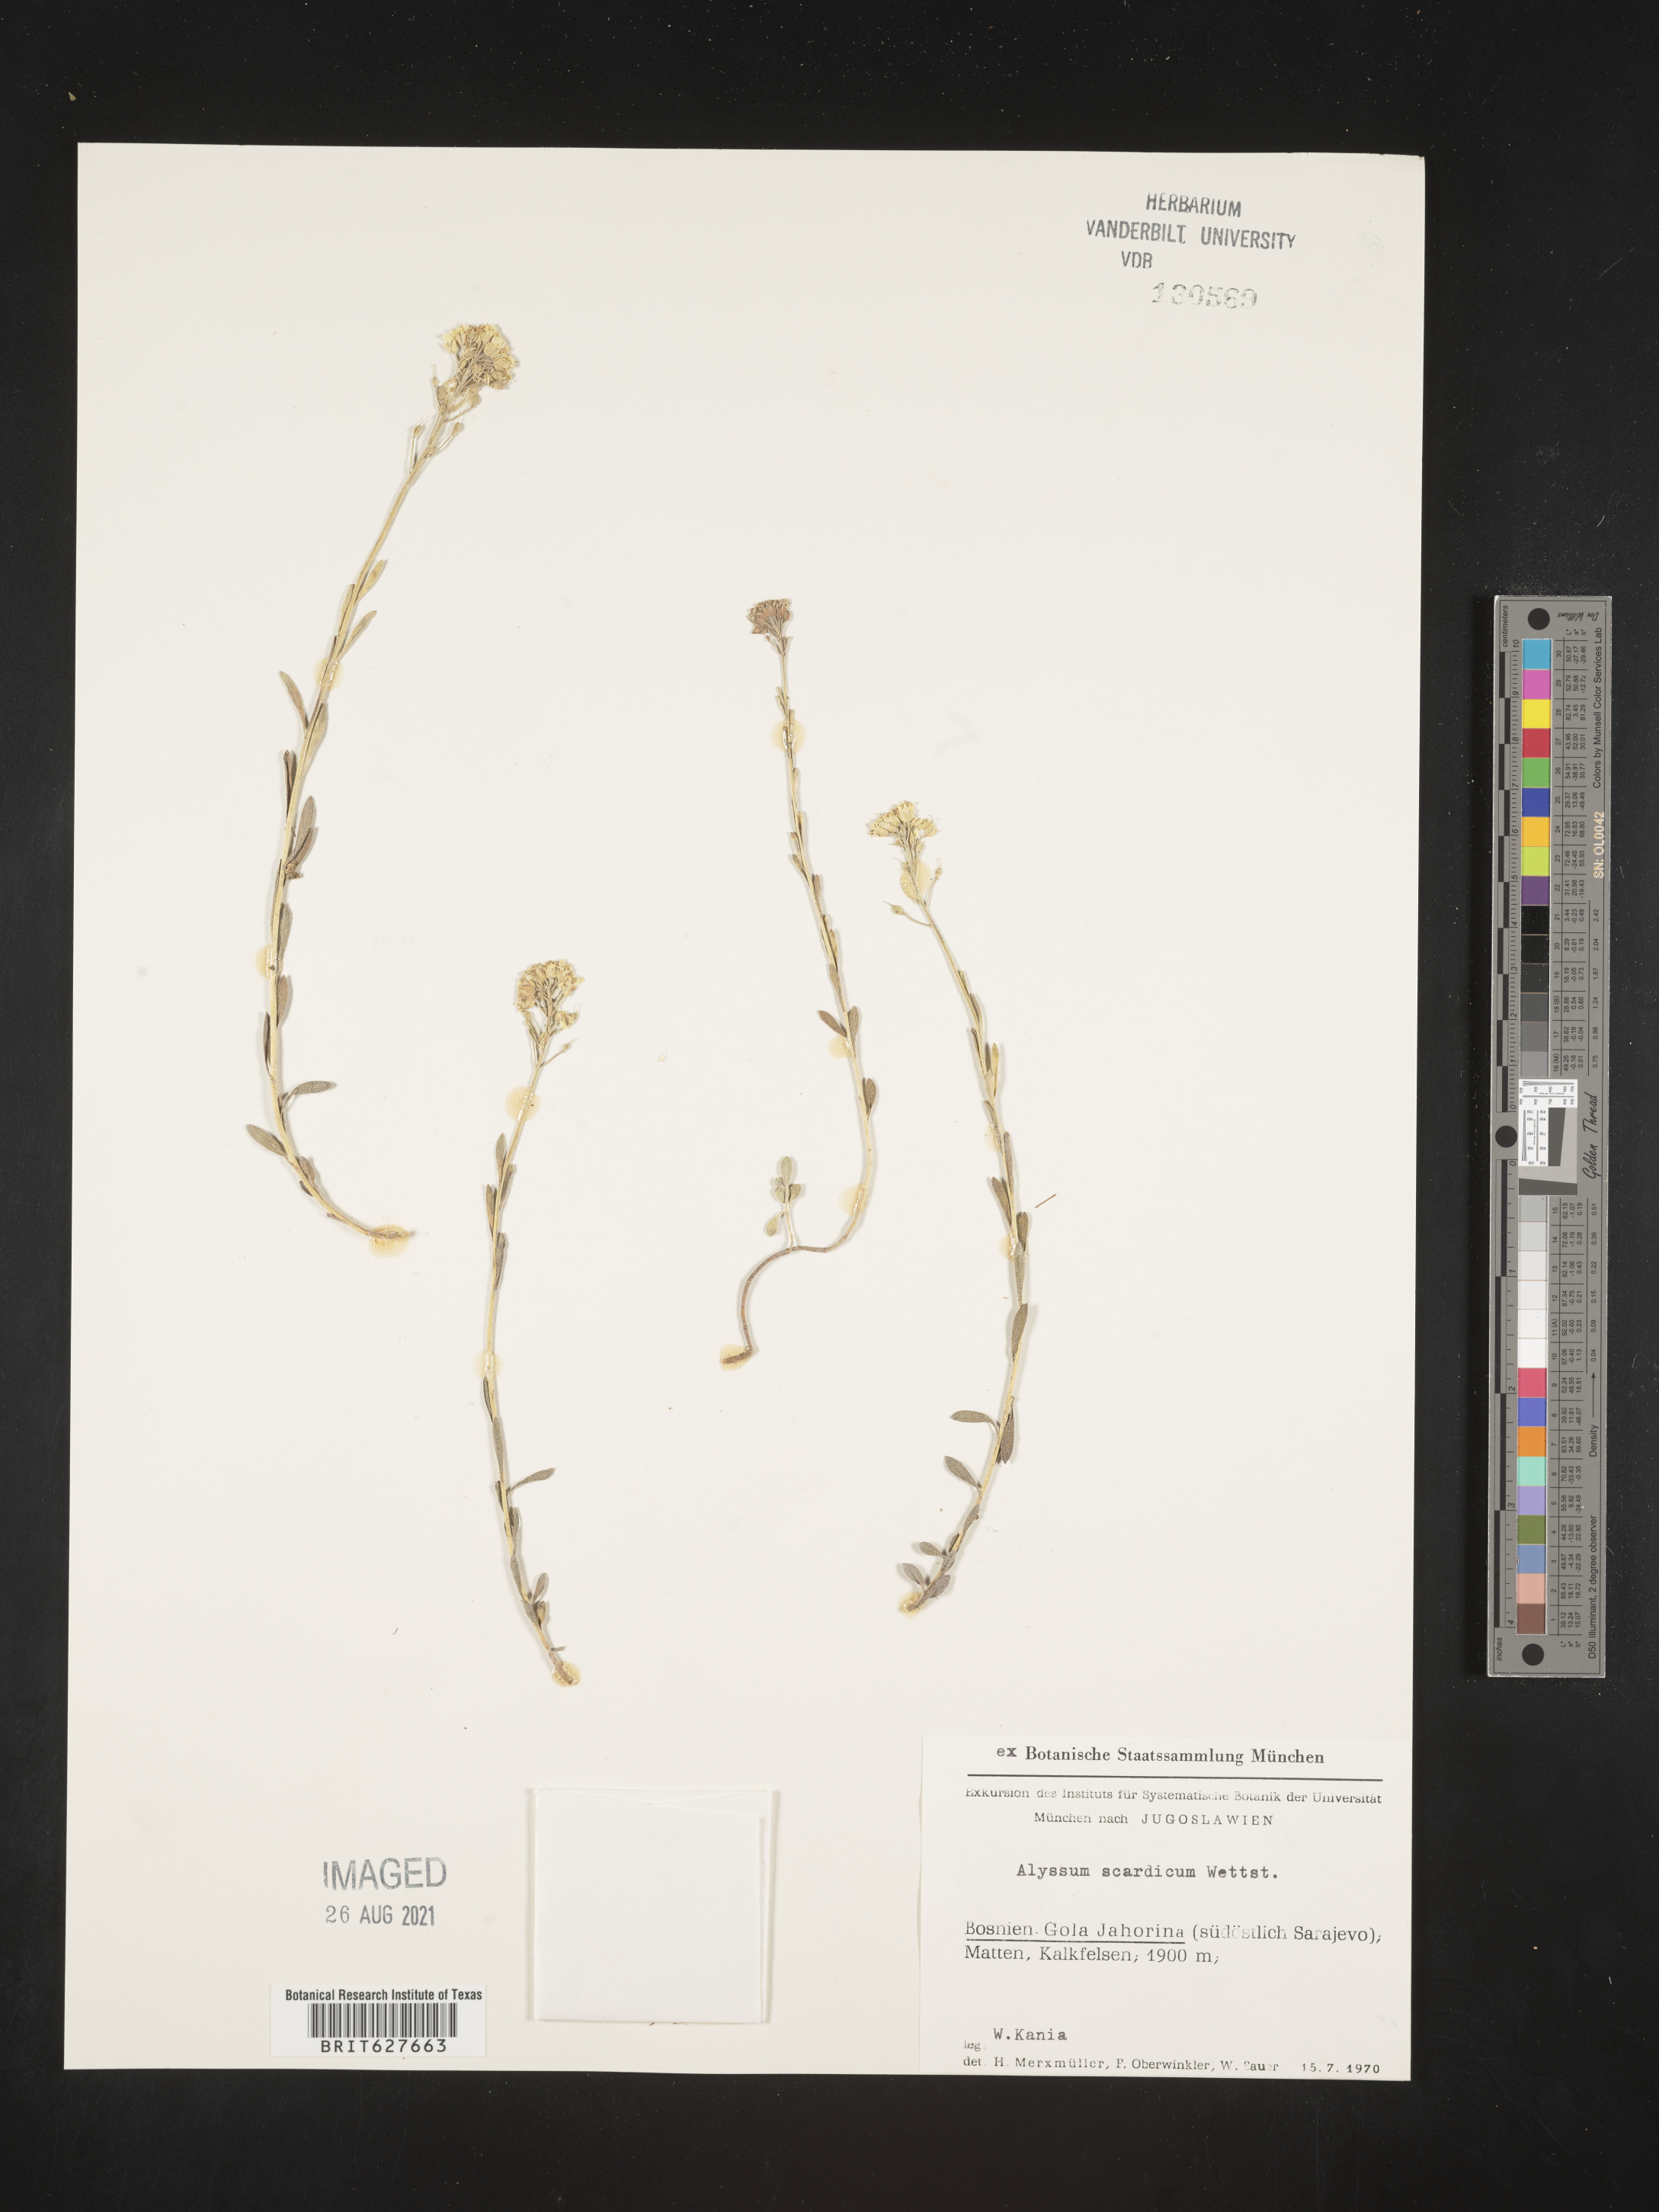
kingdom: Plantae
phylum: Tracheophyta
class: Magnoliopsida
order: Brassicales
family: Brassicaceae
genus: Alyssum
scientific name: Alyssum pirinicum
